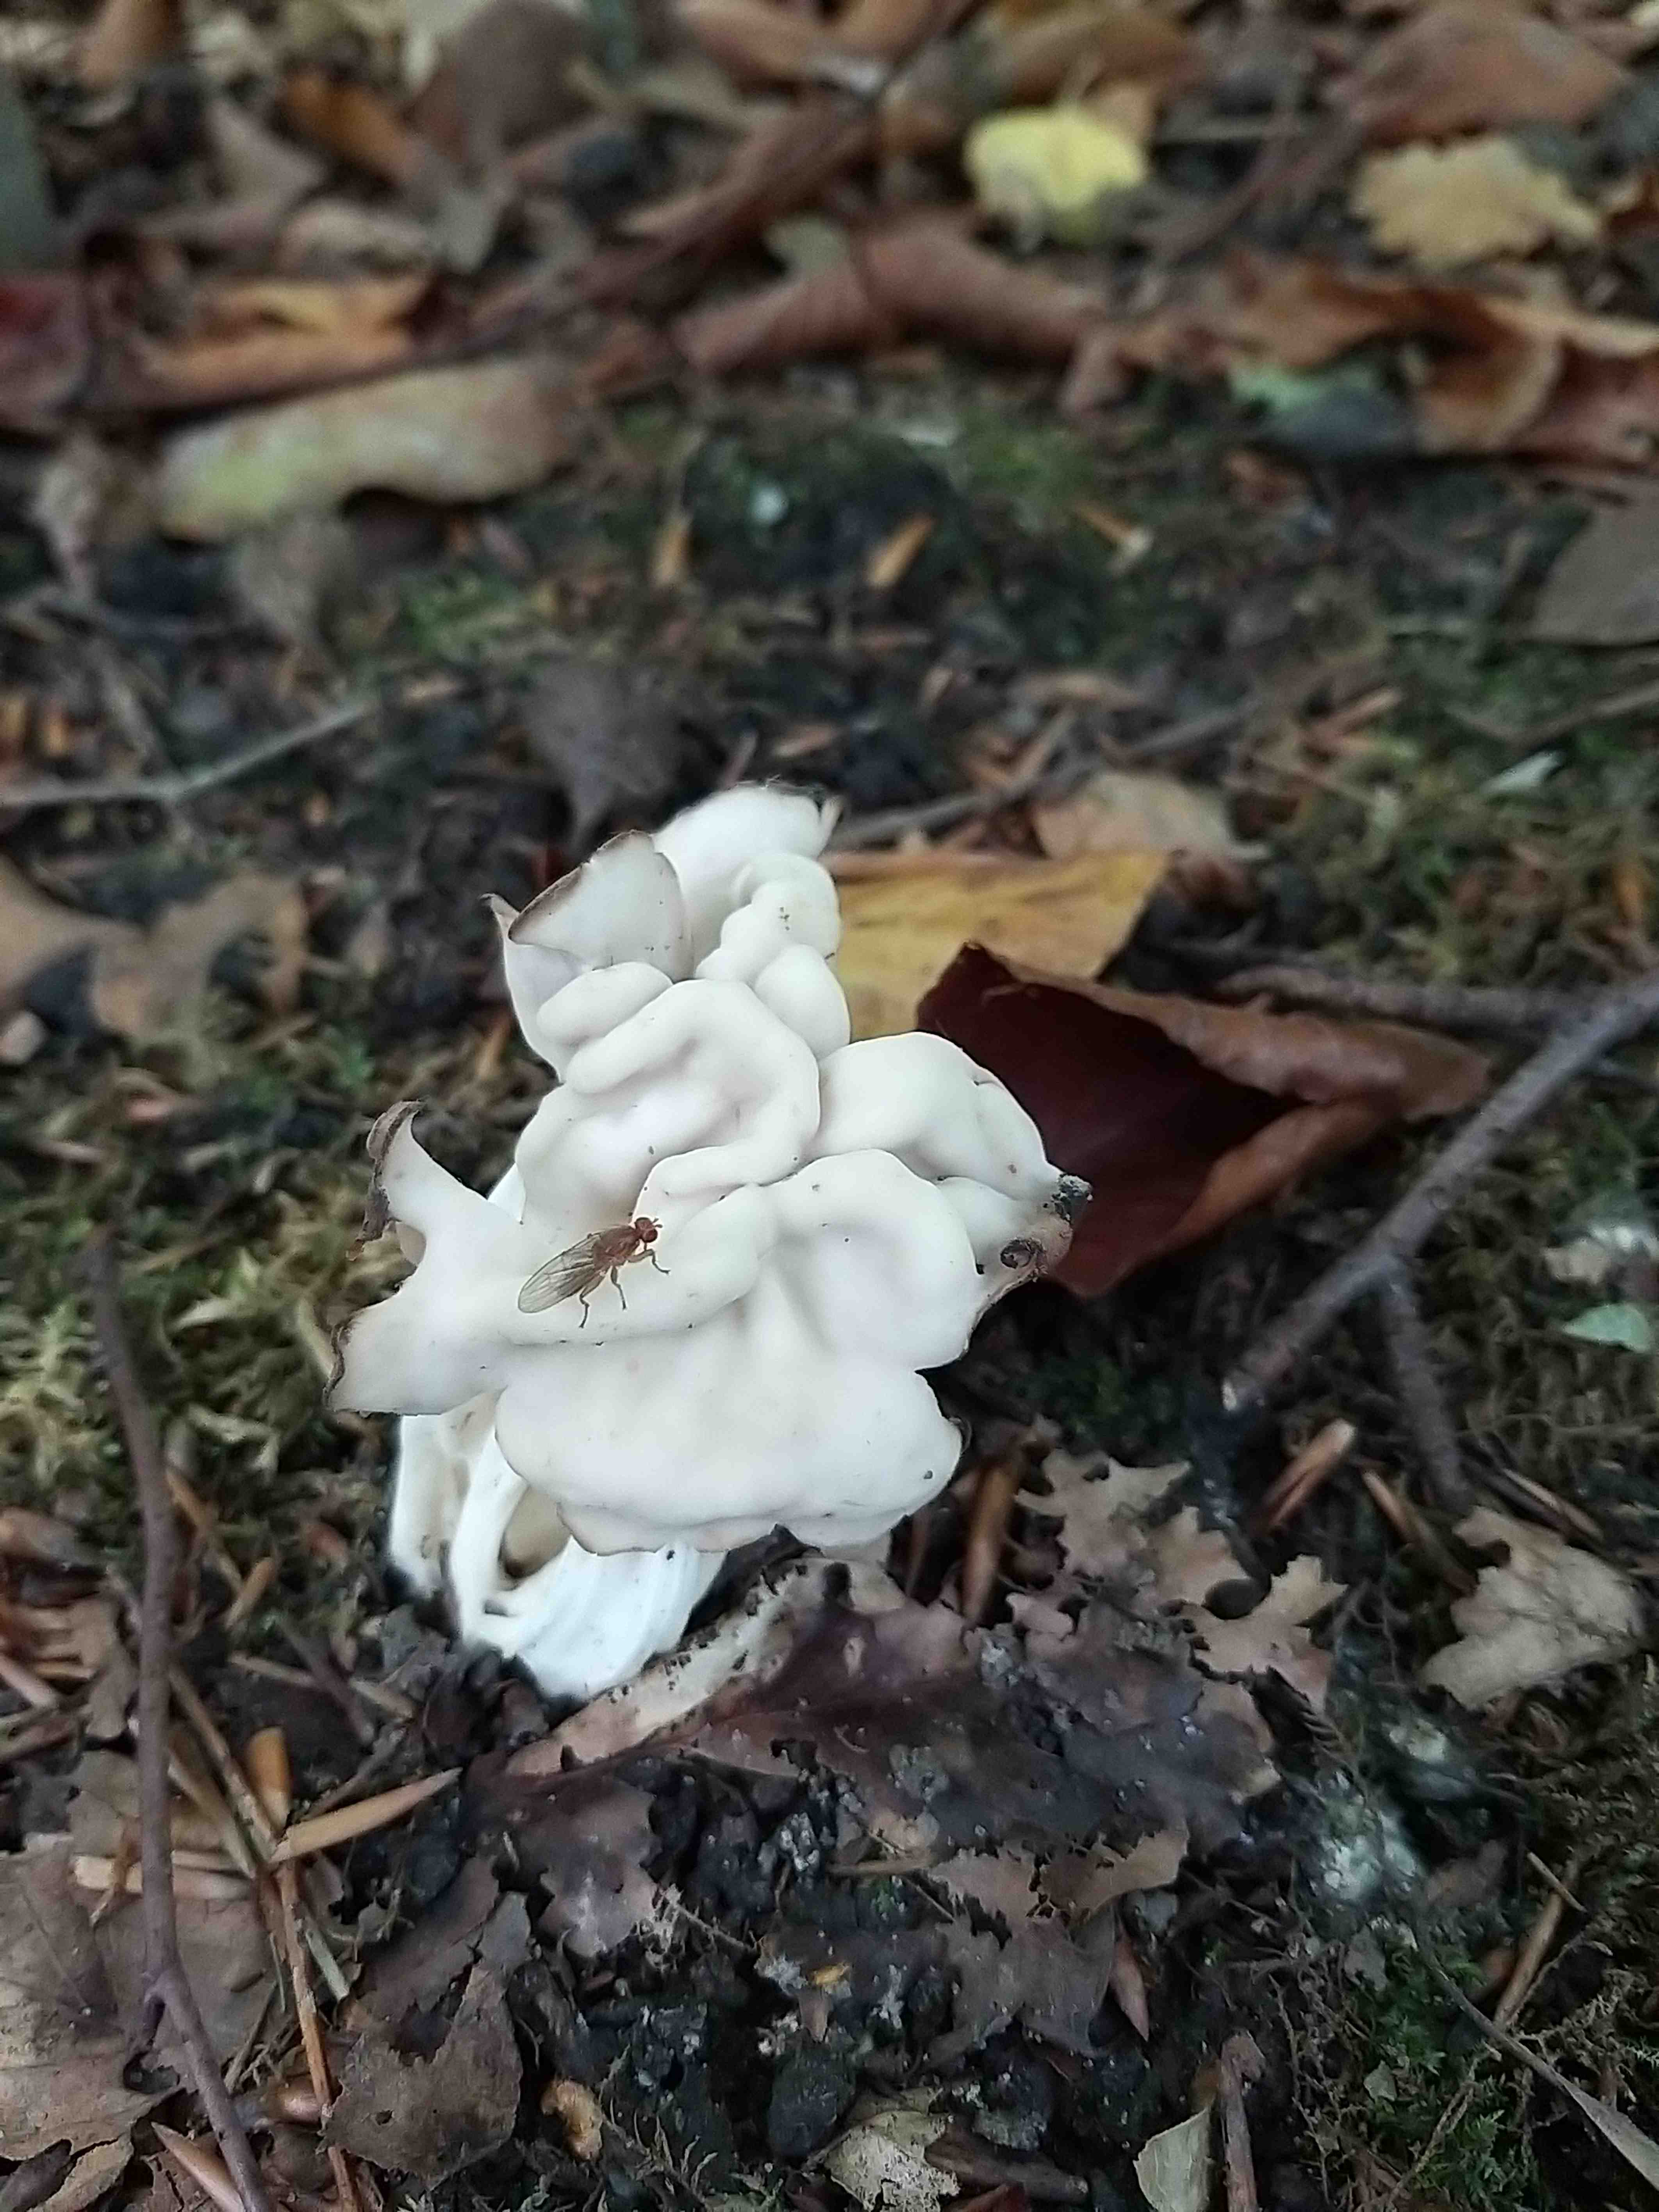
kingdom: Fungi
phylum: Ascomycota
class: Pezizomycetes
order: Pezizales
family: Helvellaceae
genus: Helvella
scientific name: Helvella crispa
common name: kruset foldhat
